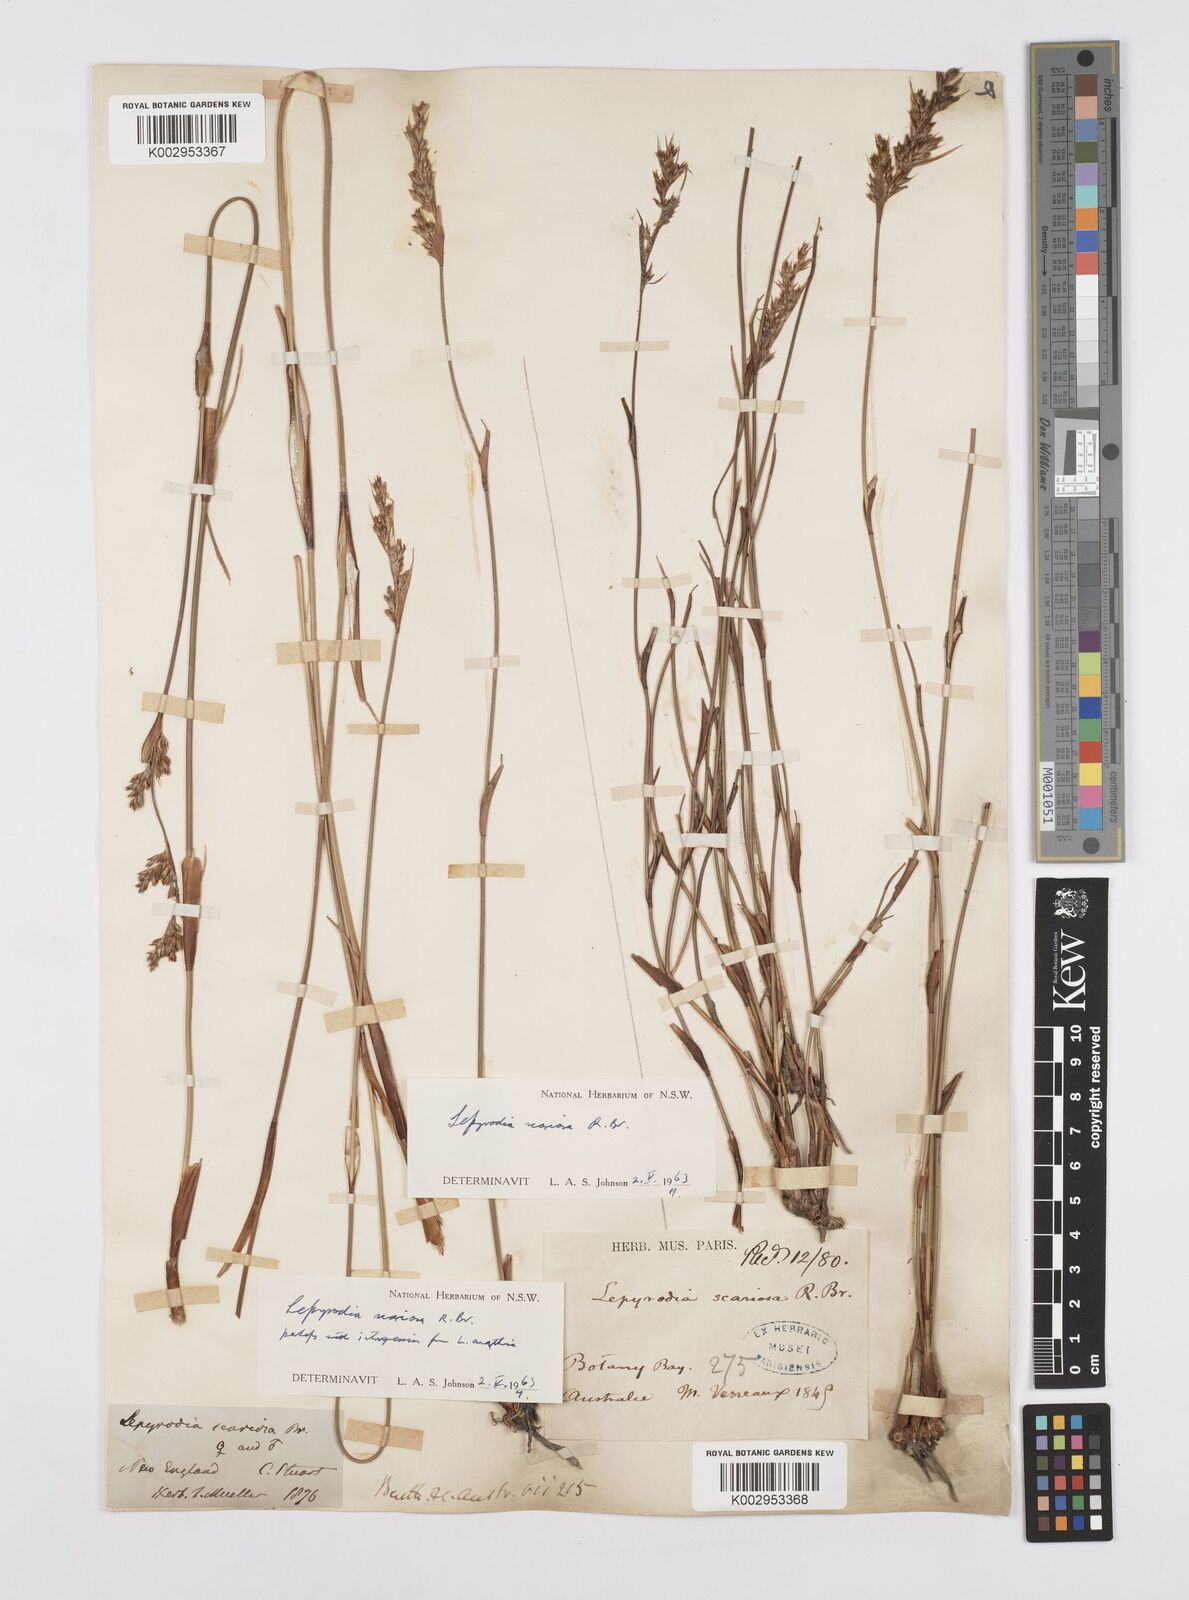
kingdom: Plantae
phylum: Tracheophyta
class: Liliopsida
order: Poales
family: Restionaceae
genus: Lepyrodia
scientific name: Lepyrodia scariosa
